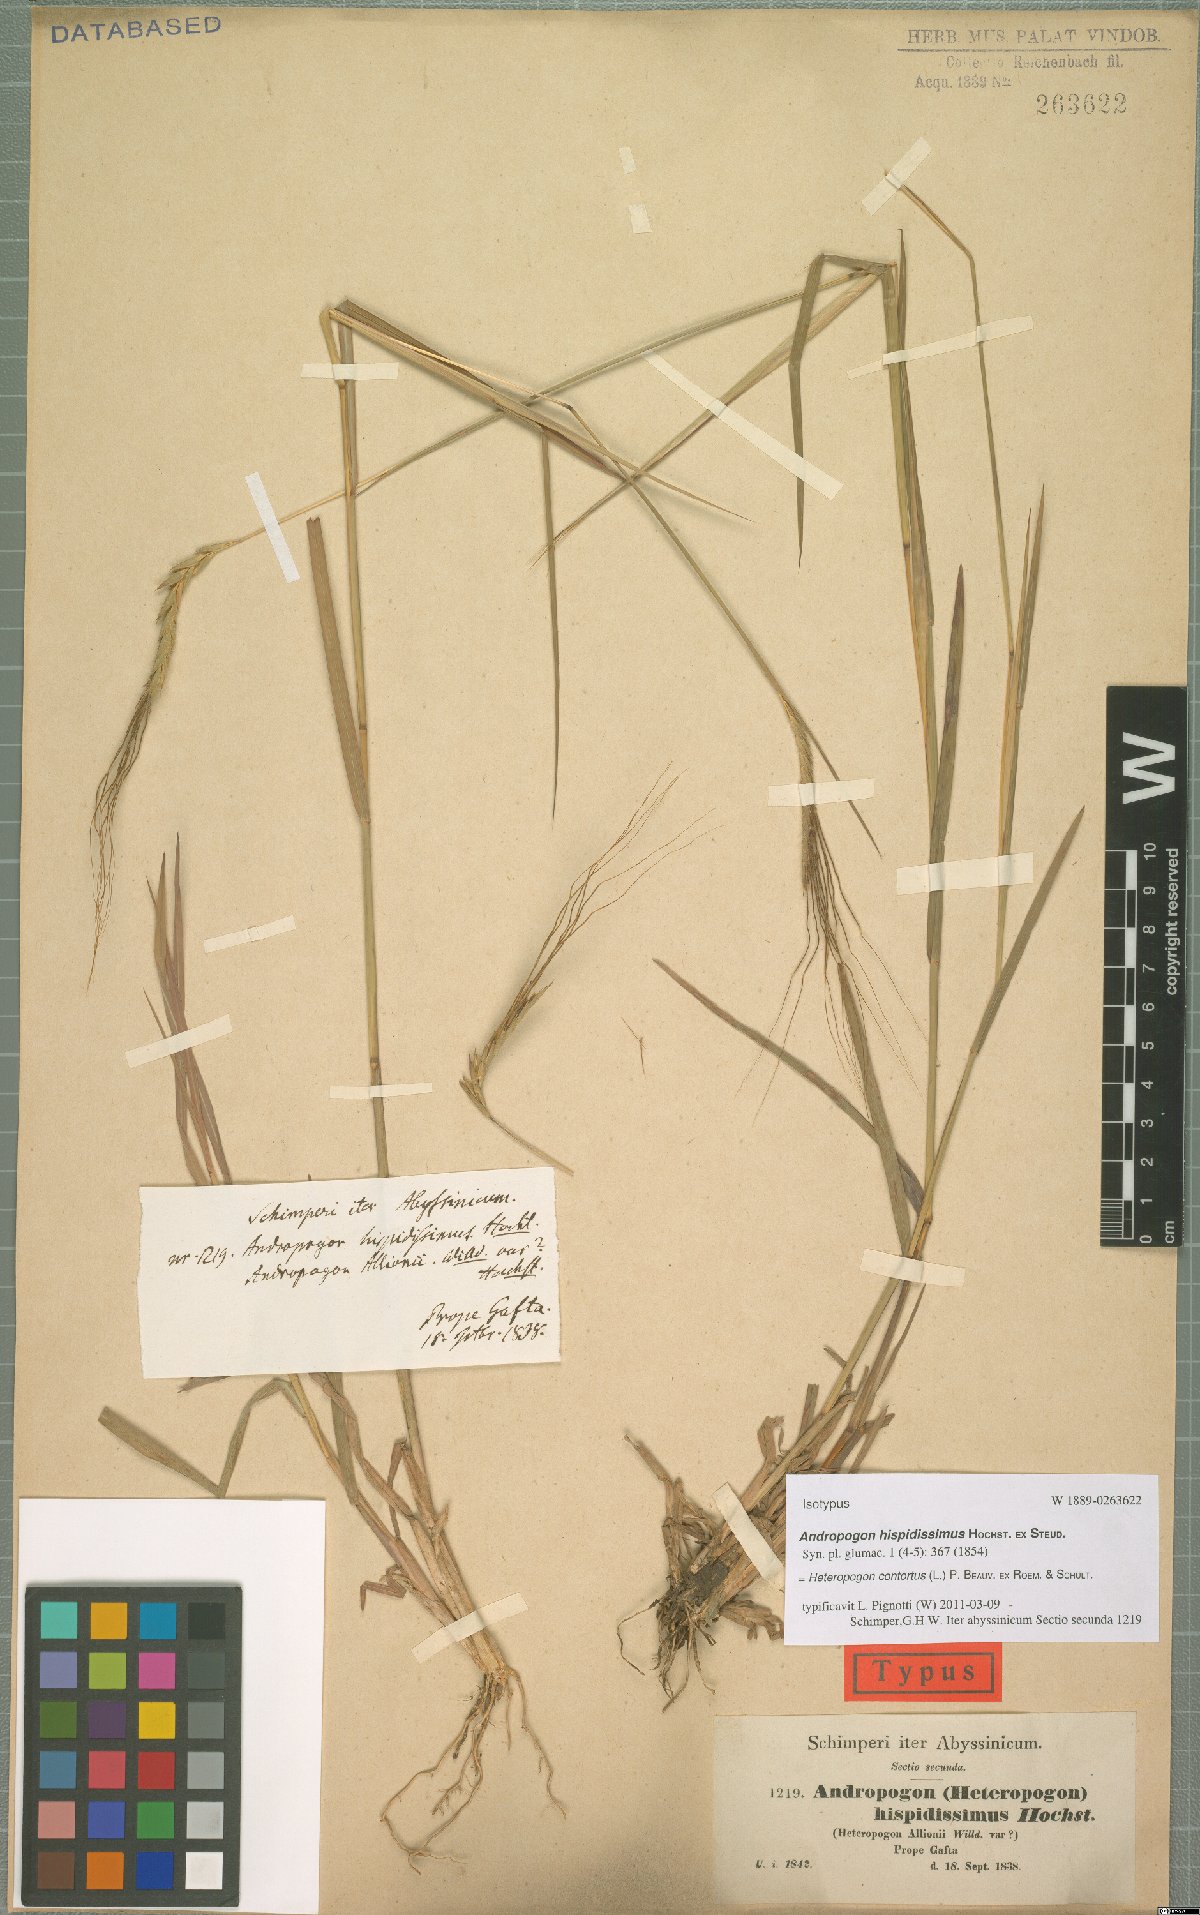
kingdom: Plantae
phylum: Tracheophyta
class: Liliopsida
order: Poales
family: Poaceae
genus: Heteropogon
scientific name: Heteropogon contortus
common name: Tanglehead
